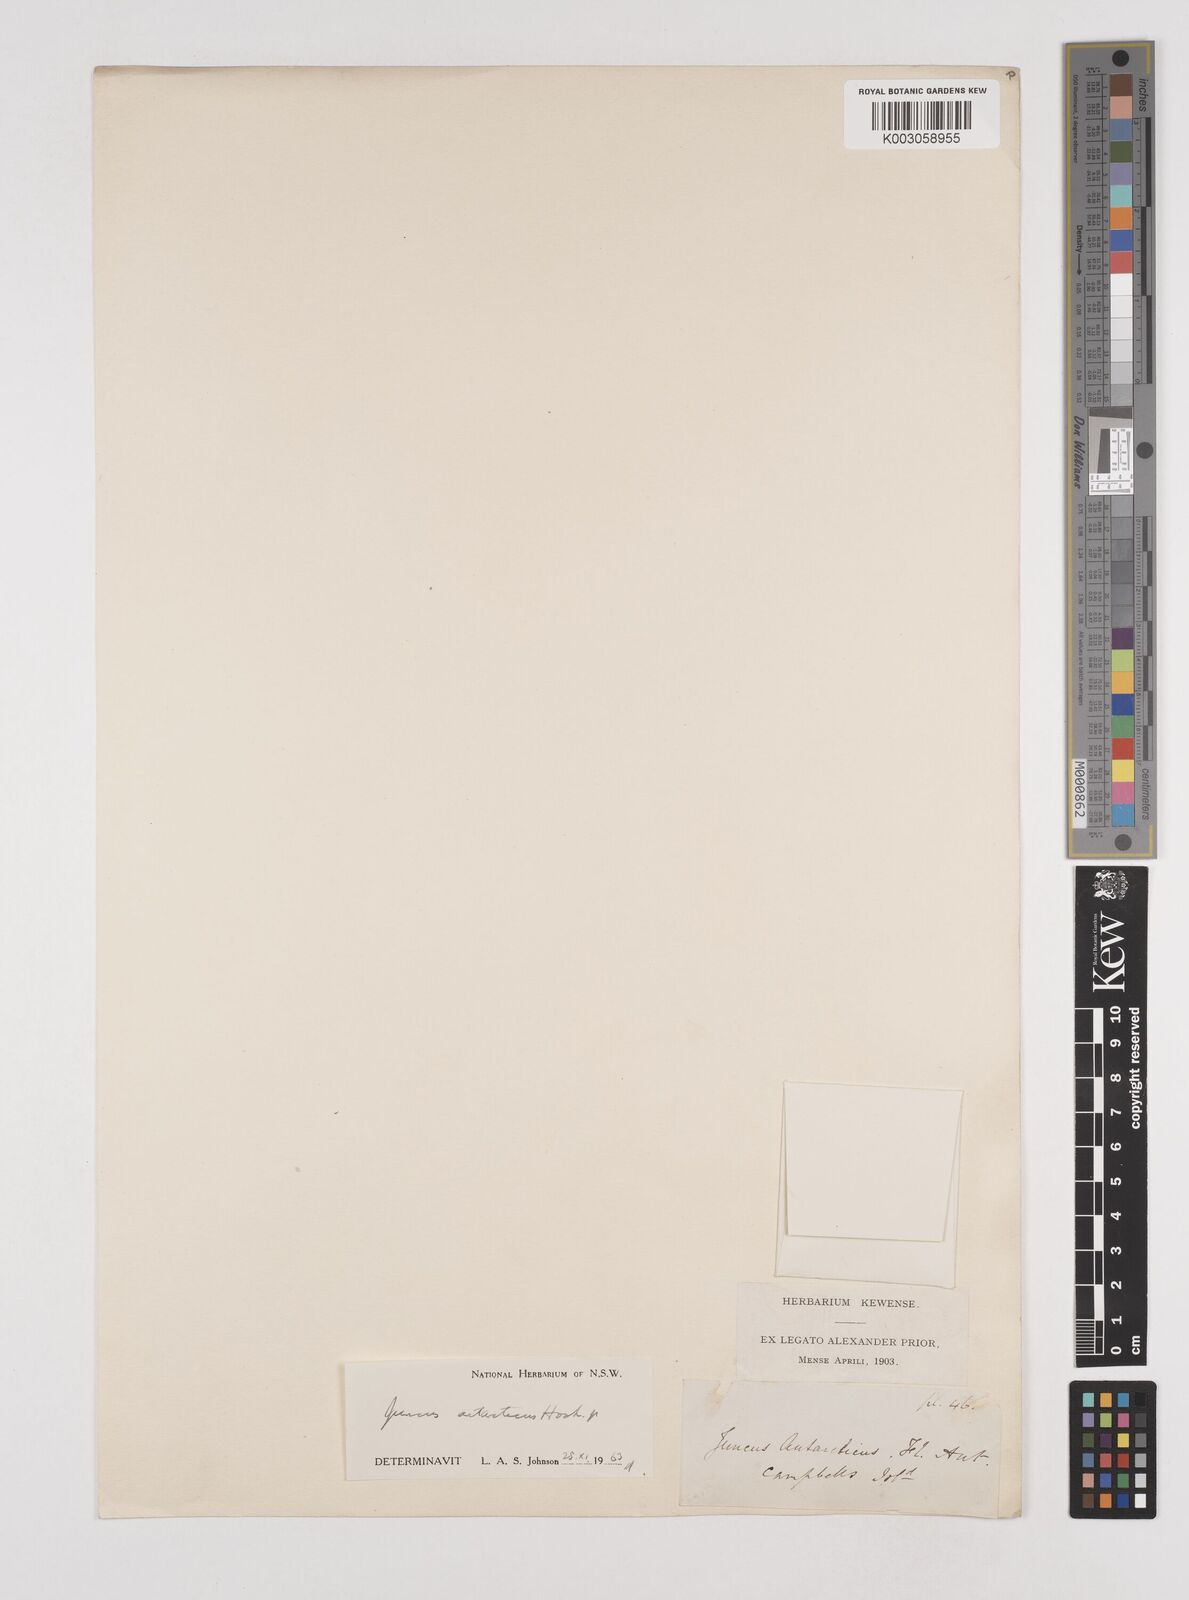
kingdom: Plantae
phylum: Tracheophyta
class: Liliopsida
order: Poales
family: Juncaceae
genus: Juncus
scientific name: Juncus antarcticus
